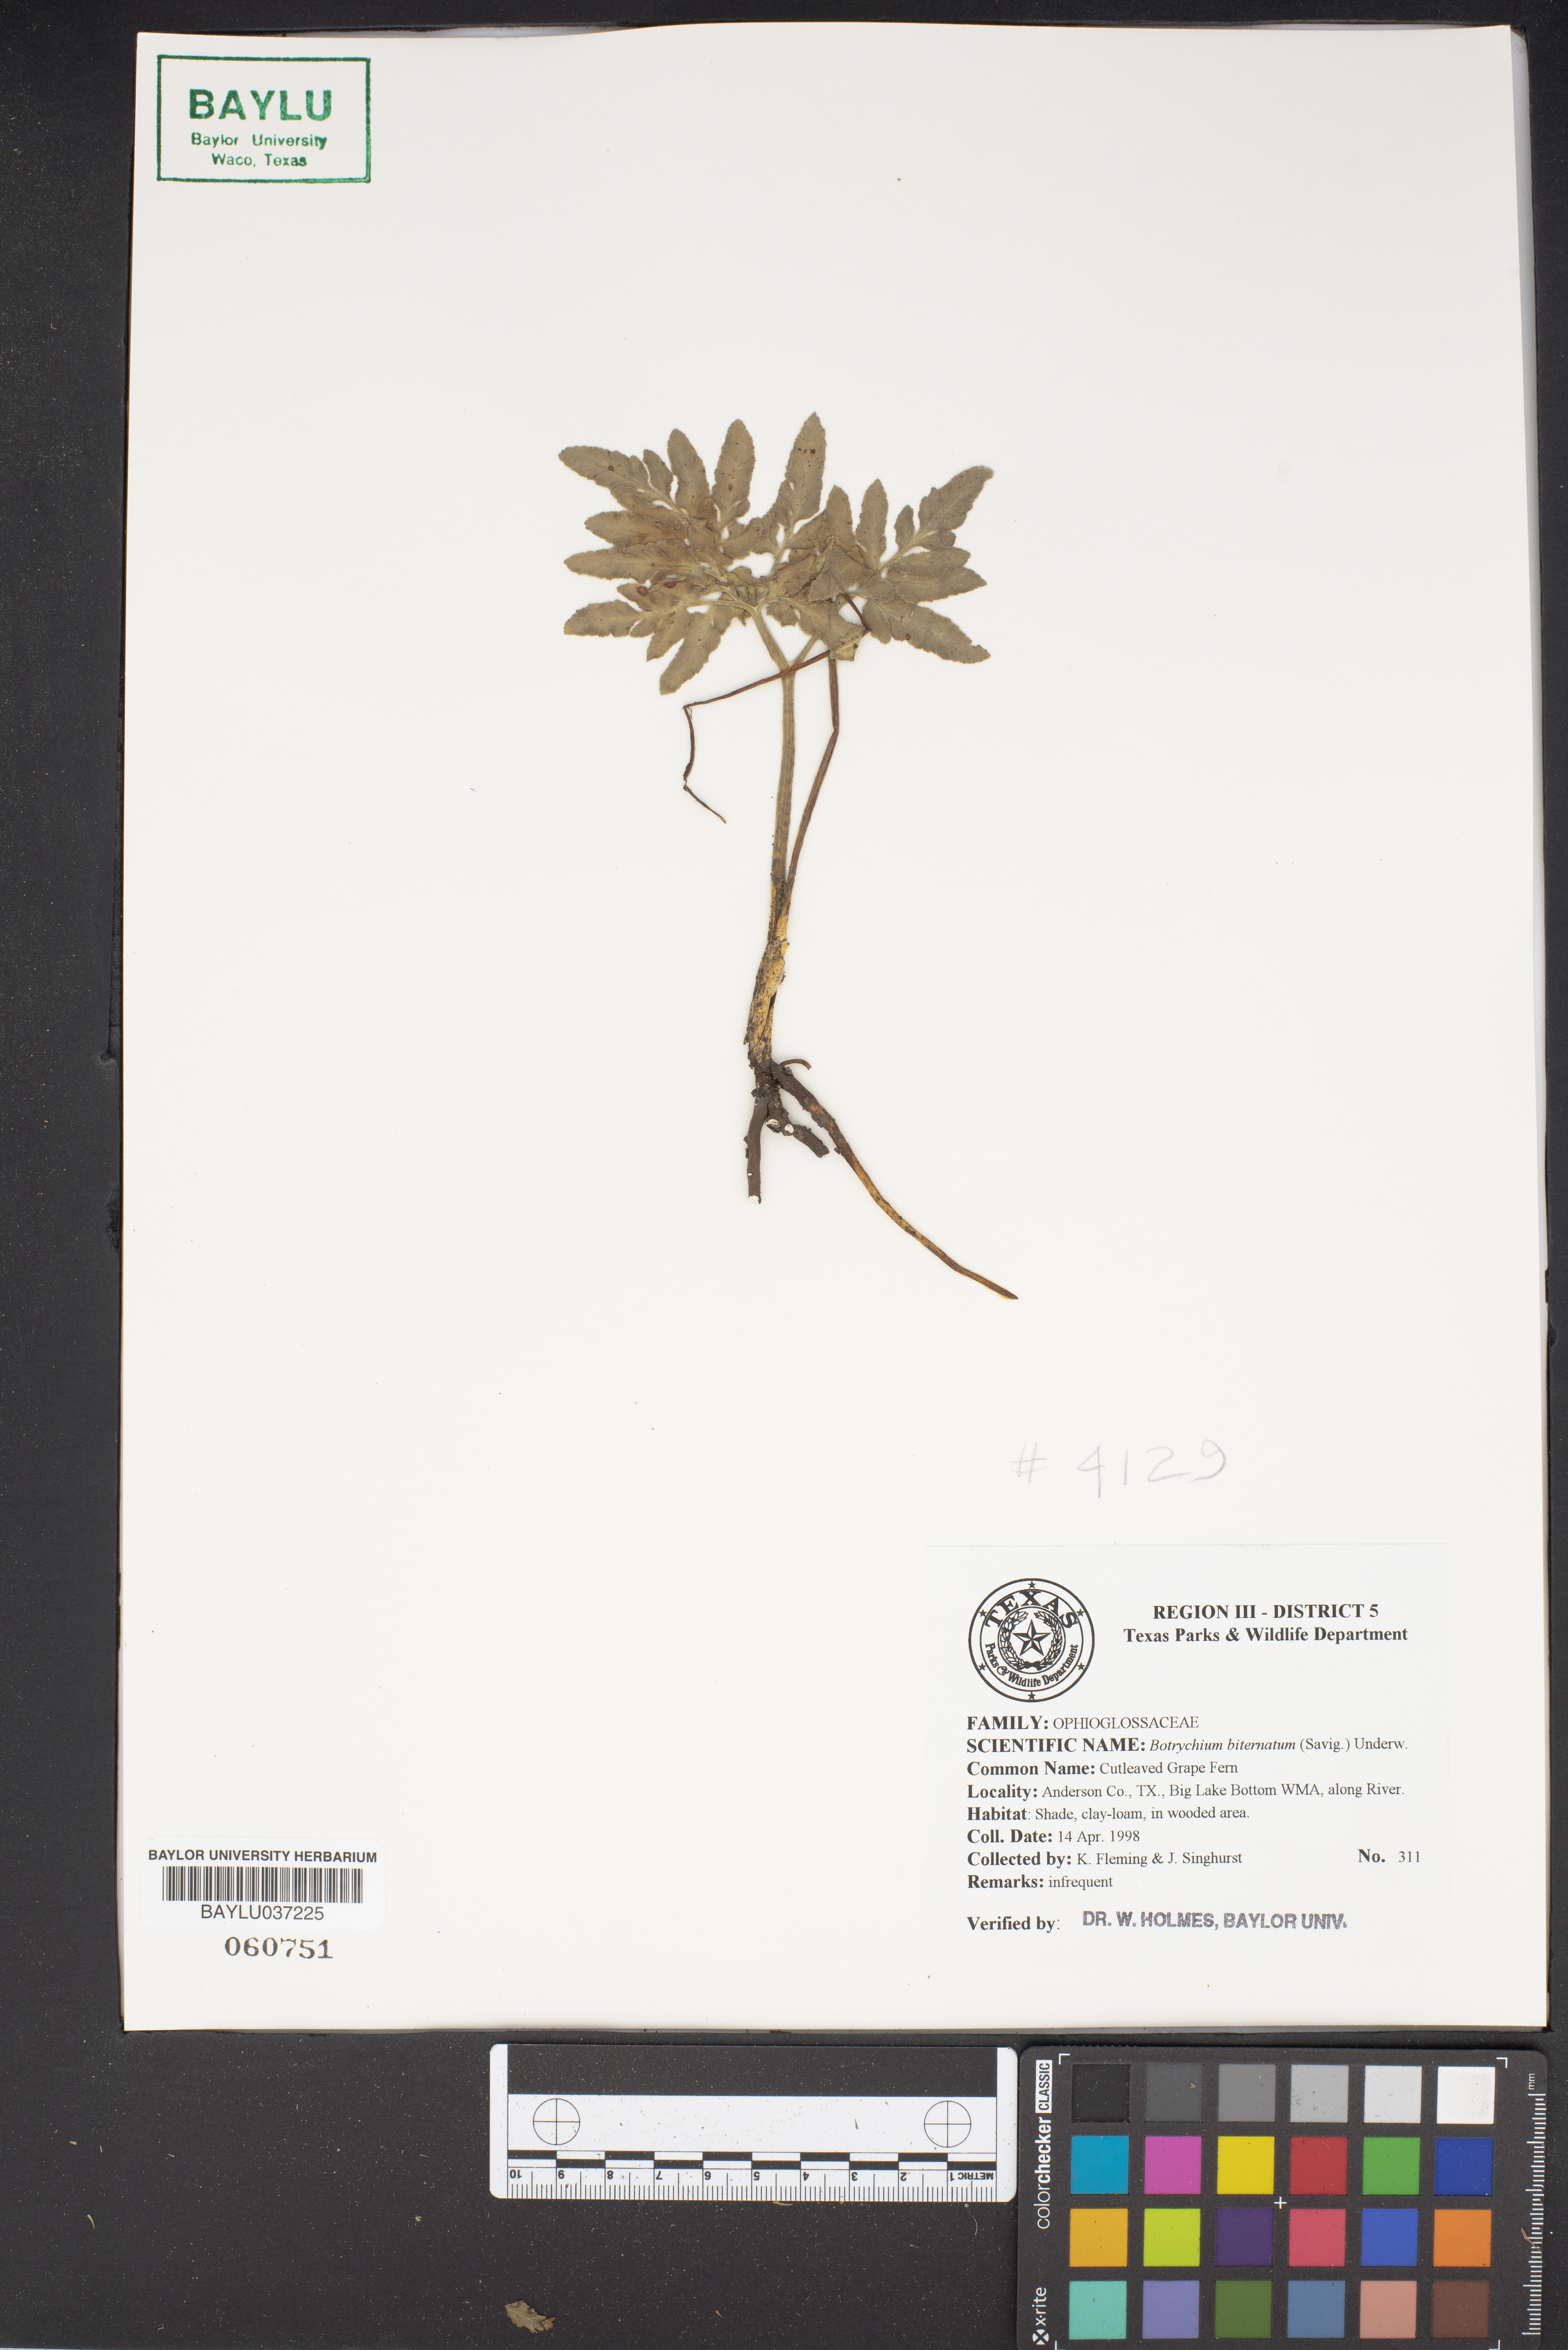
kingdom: Plantae
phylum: Tracheophyta
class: Polypodiopsida
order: Ophioglossales
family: Ophioglossaceae
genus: Sceptridium
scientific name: Sceptridium biternatum
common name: Sparse-lobed grapefern
